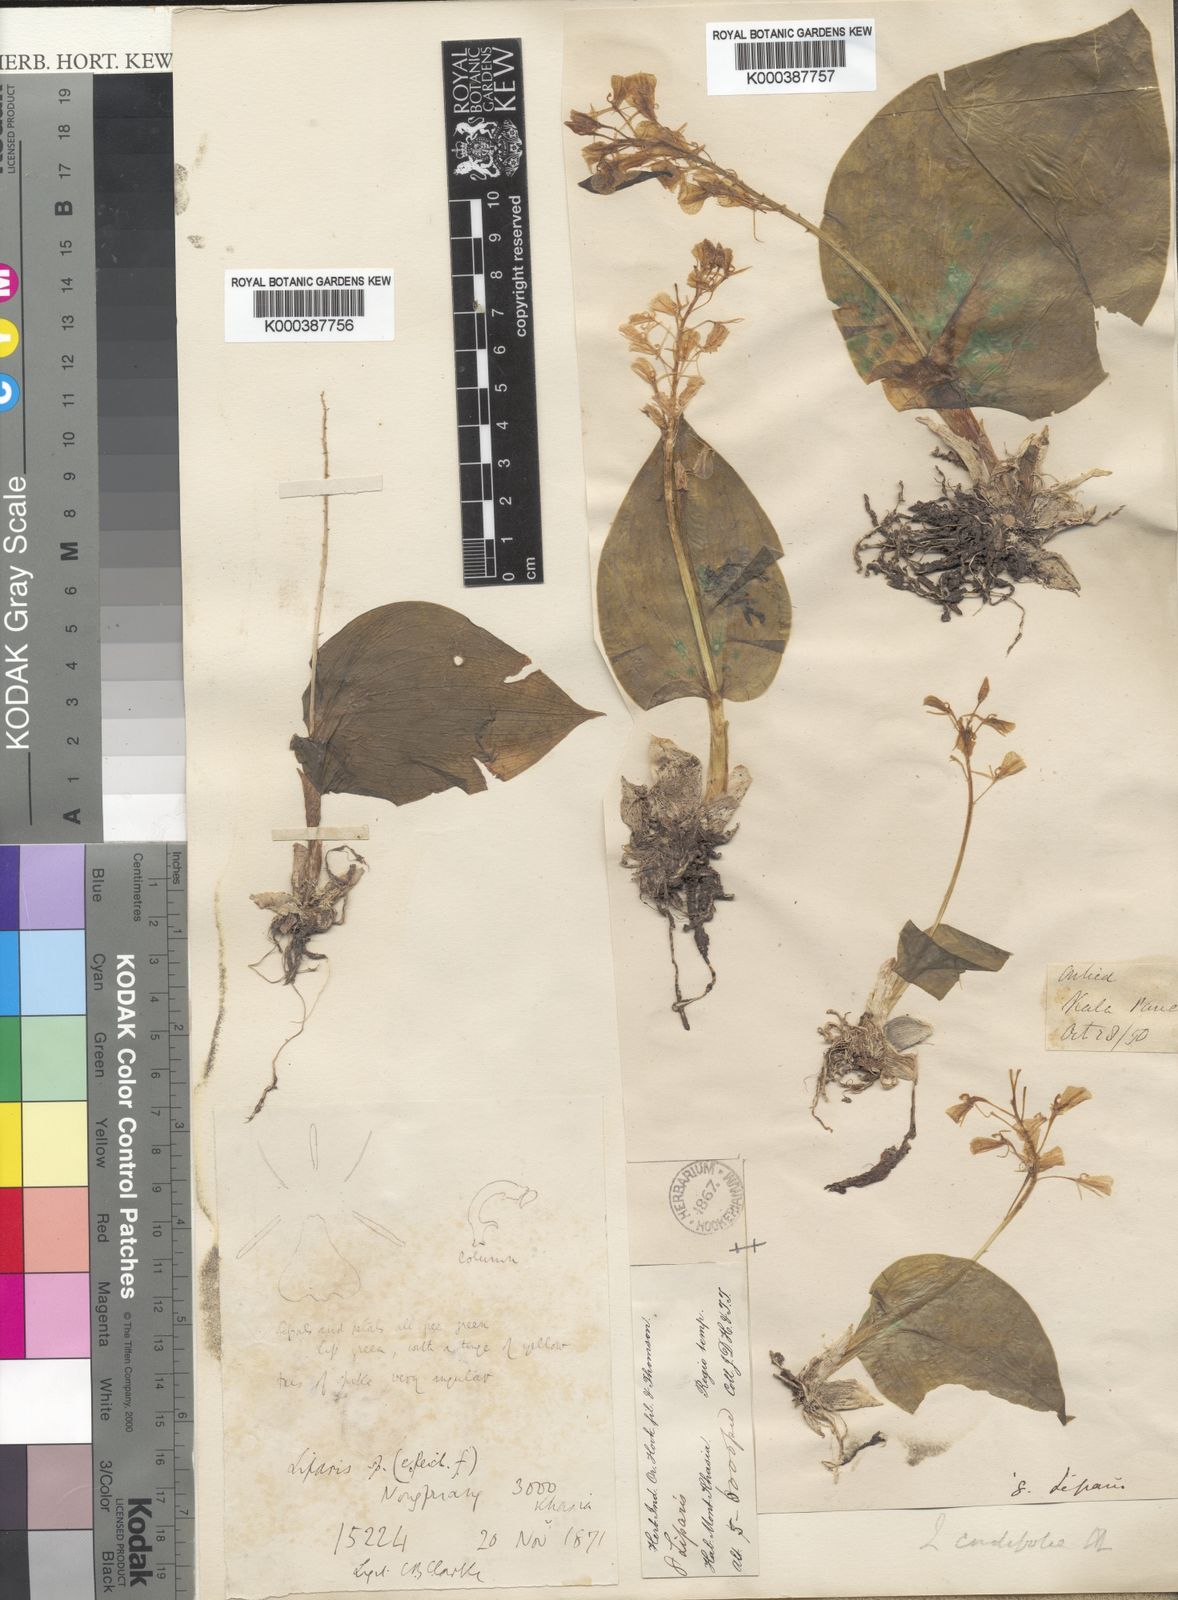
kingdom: Plantae
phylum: Tracheophyta
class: Liliopsida
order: Asparagales
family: Orchidaceae
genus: Liparis
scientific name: Liparis cordifolia
